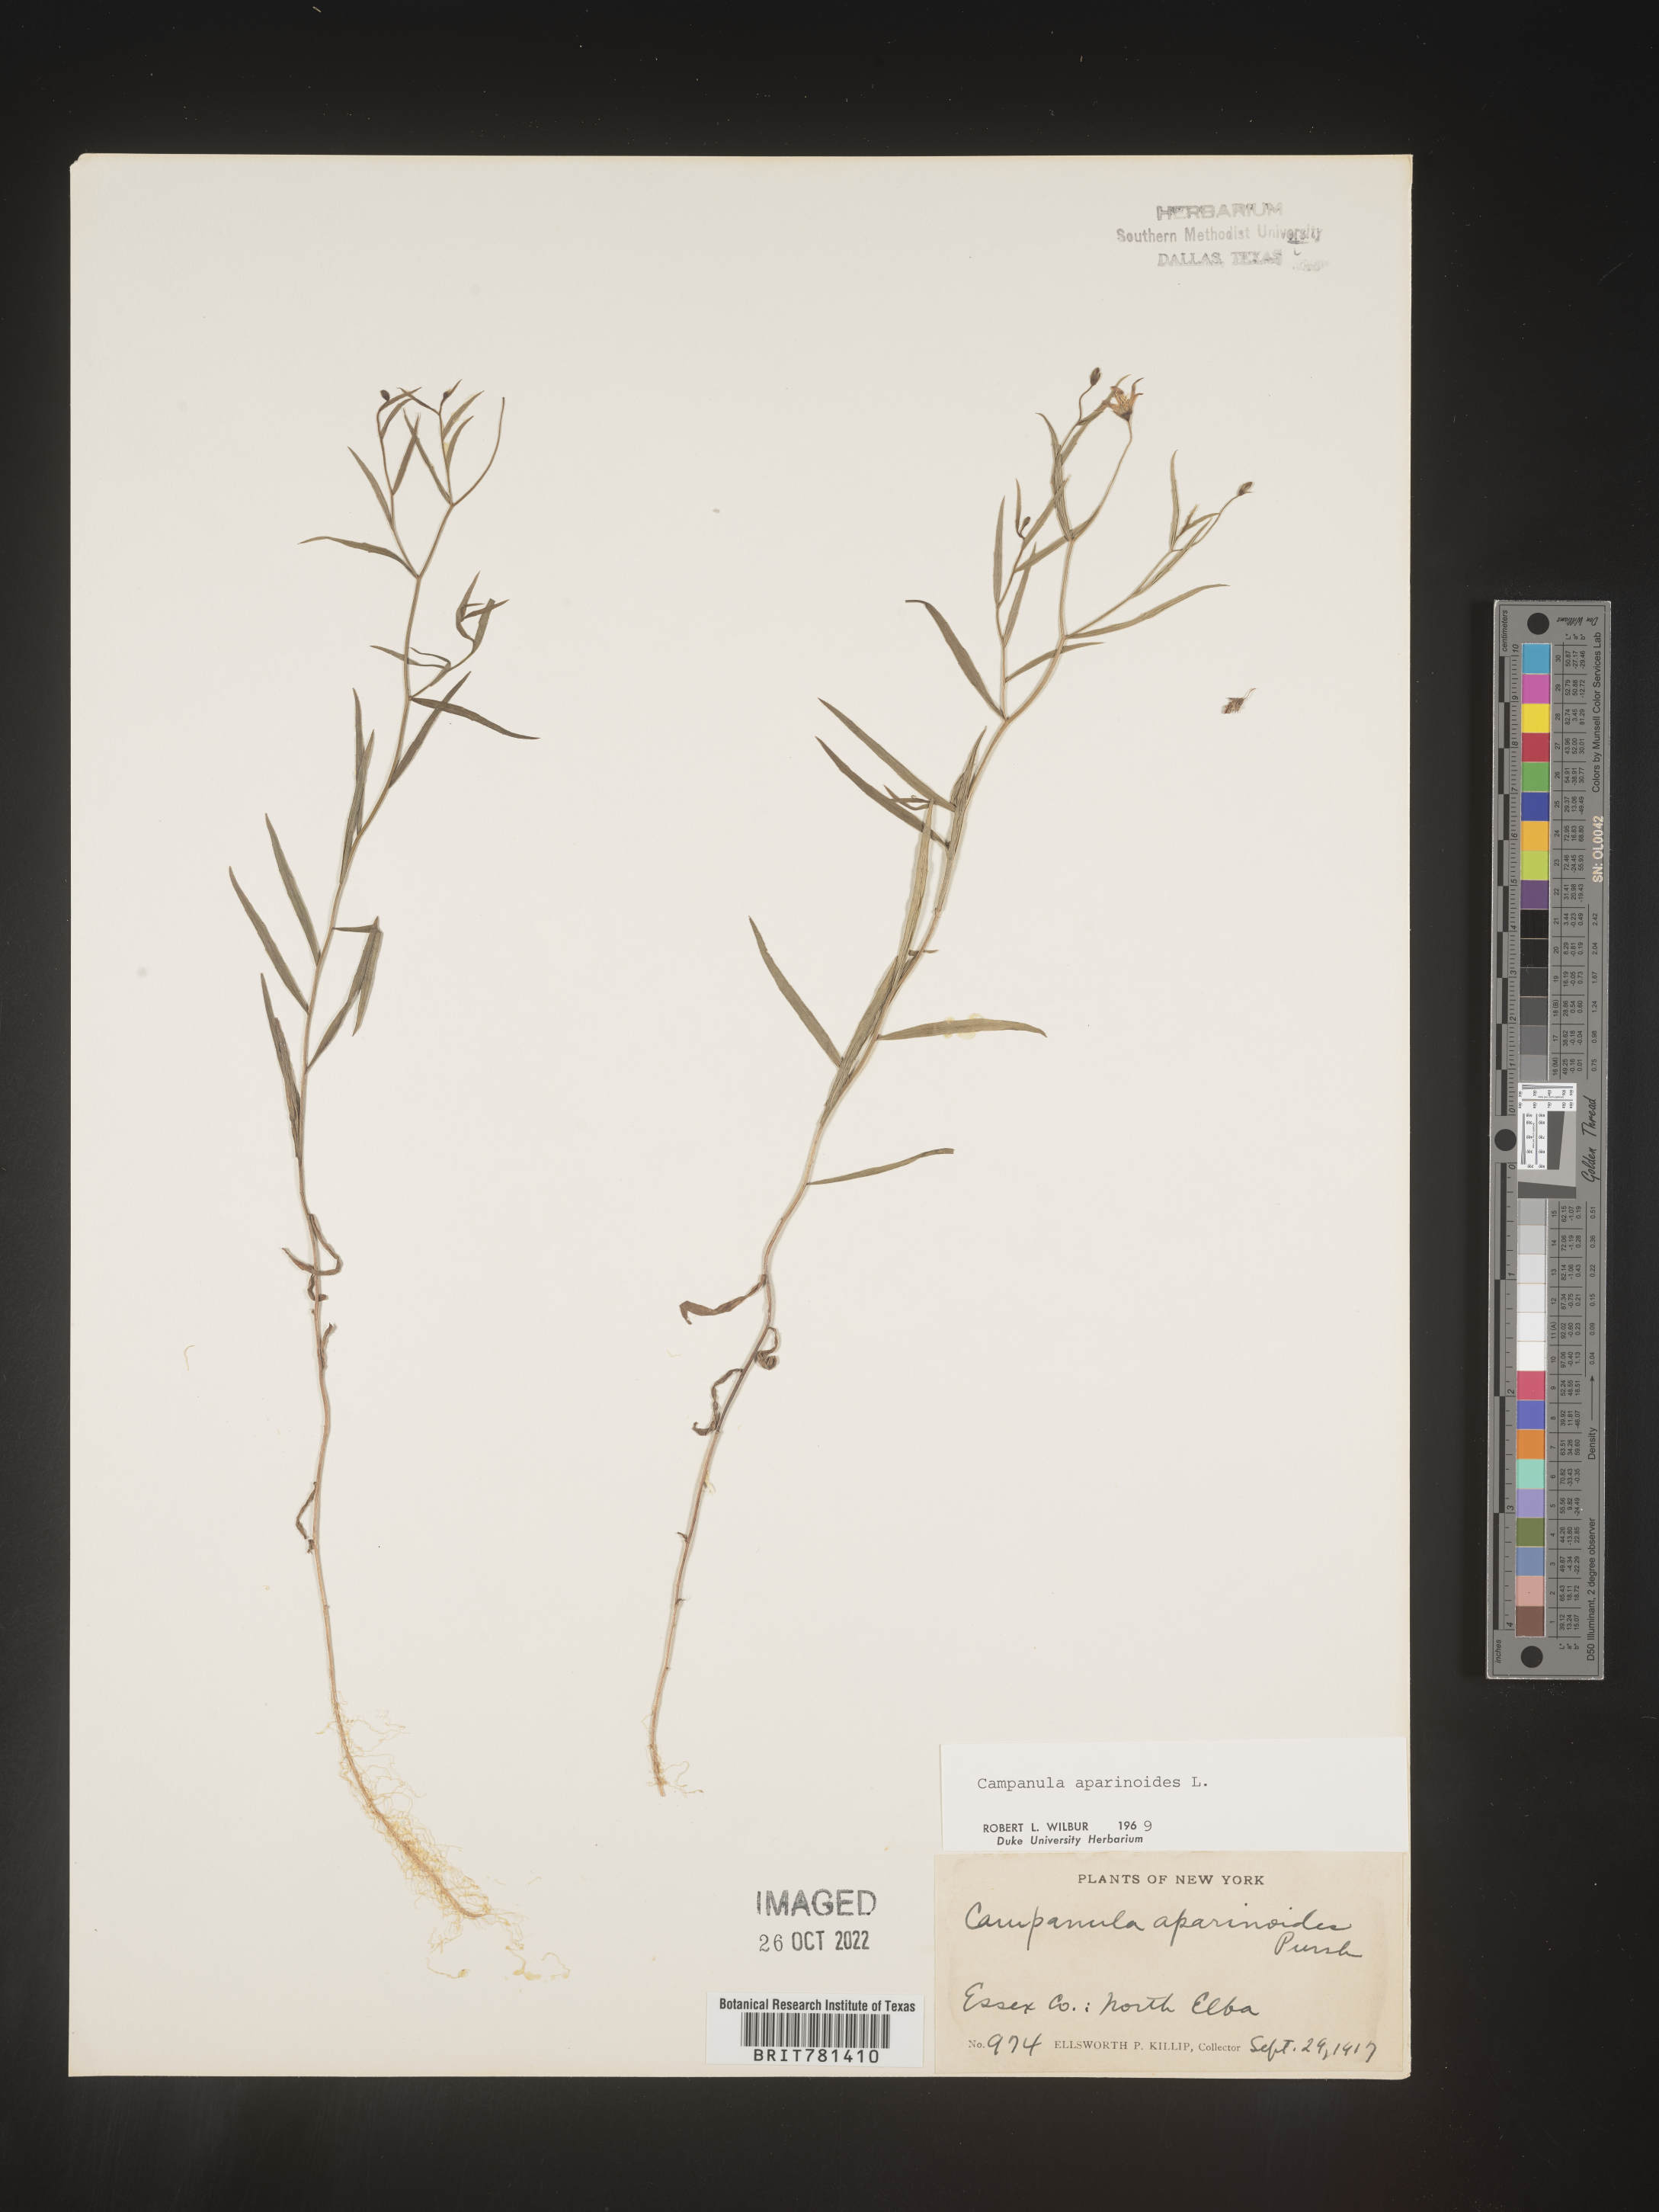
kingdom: Plantae
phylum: Tracheophyta
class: Magnoliopsida
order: Asterales
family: Campanulaceae
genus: Palustricodon
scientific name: Palustricodon aparinoides
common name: Bedstraw bellflower
